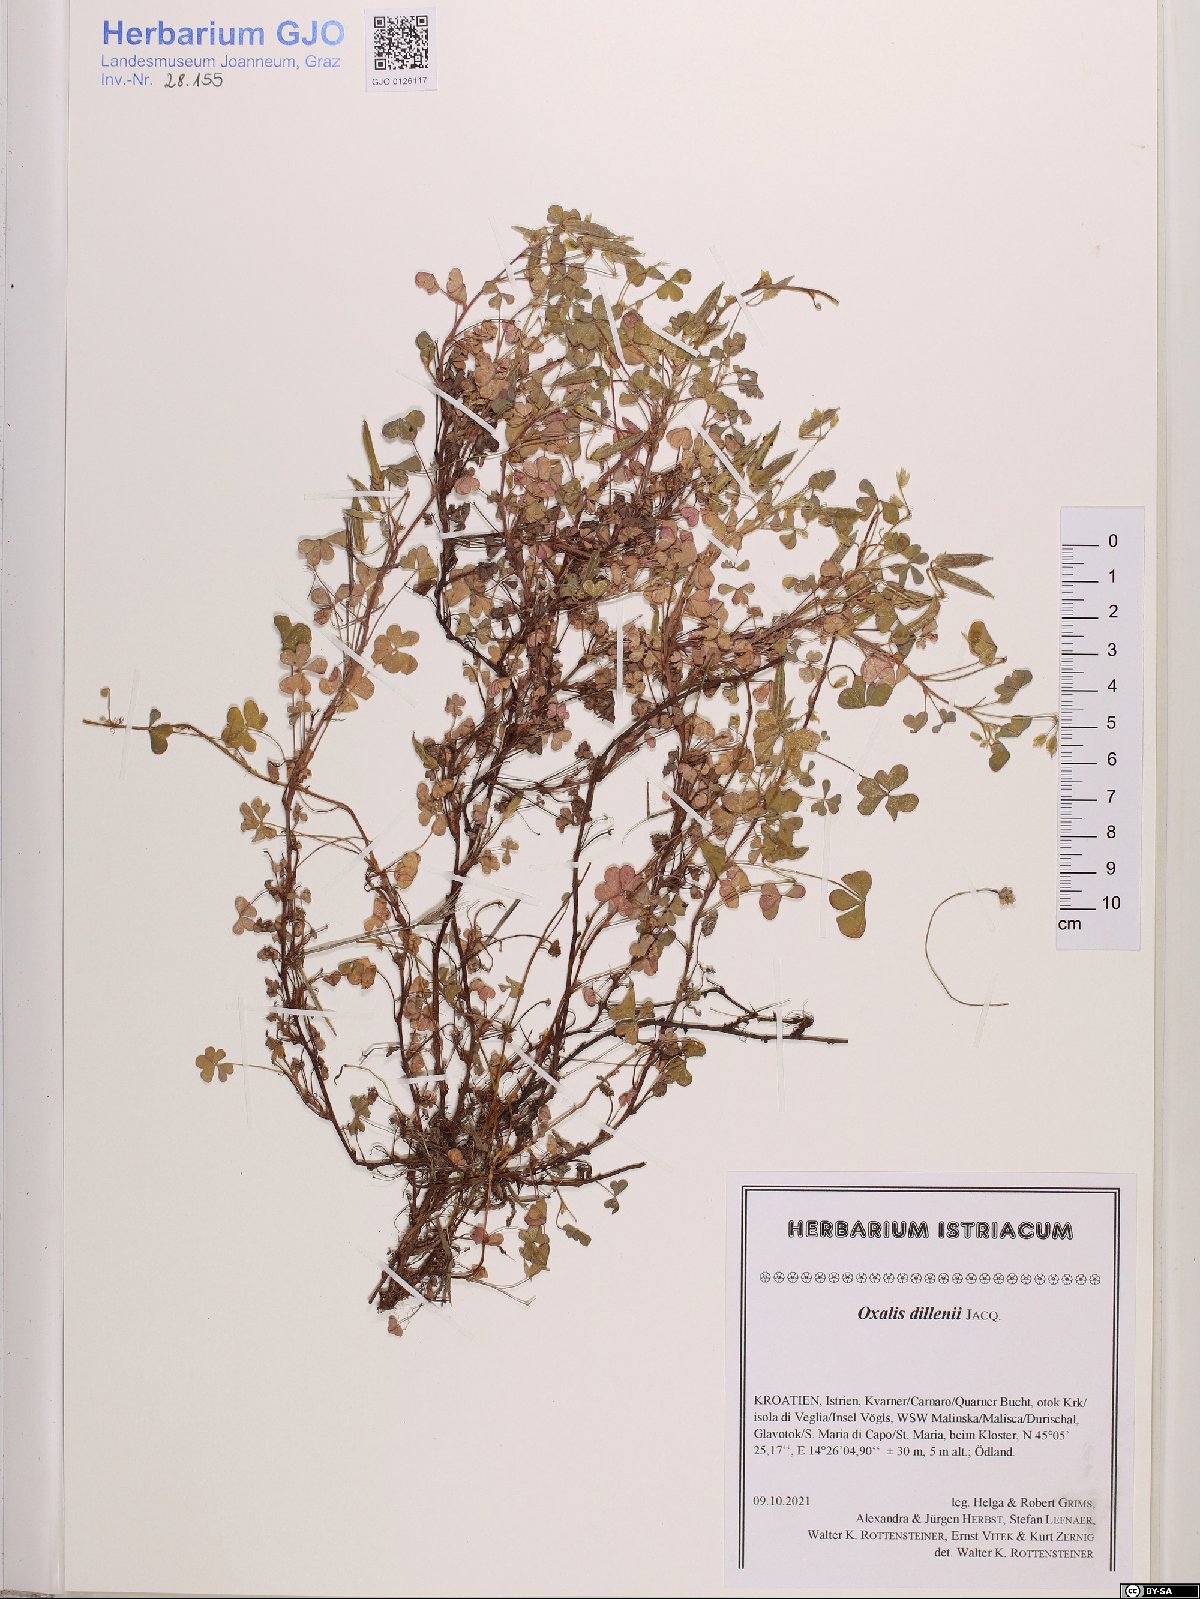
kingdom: Plantae
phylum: Tracheophyta
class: Magnoliopsida
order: Oxalidales
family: Oxalidaceae
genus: Oxalis
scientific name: Oxalis dillenii
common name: Sussex yellow-sorrel
